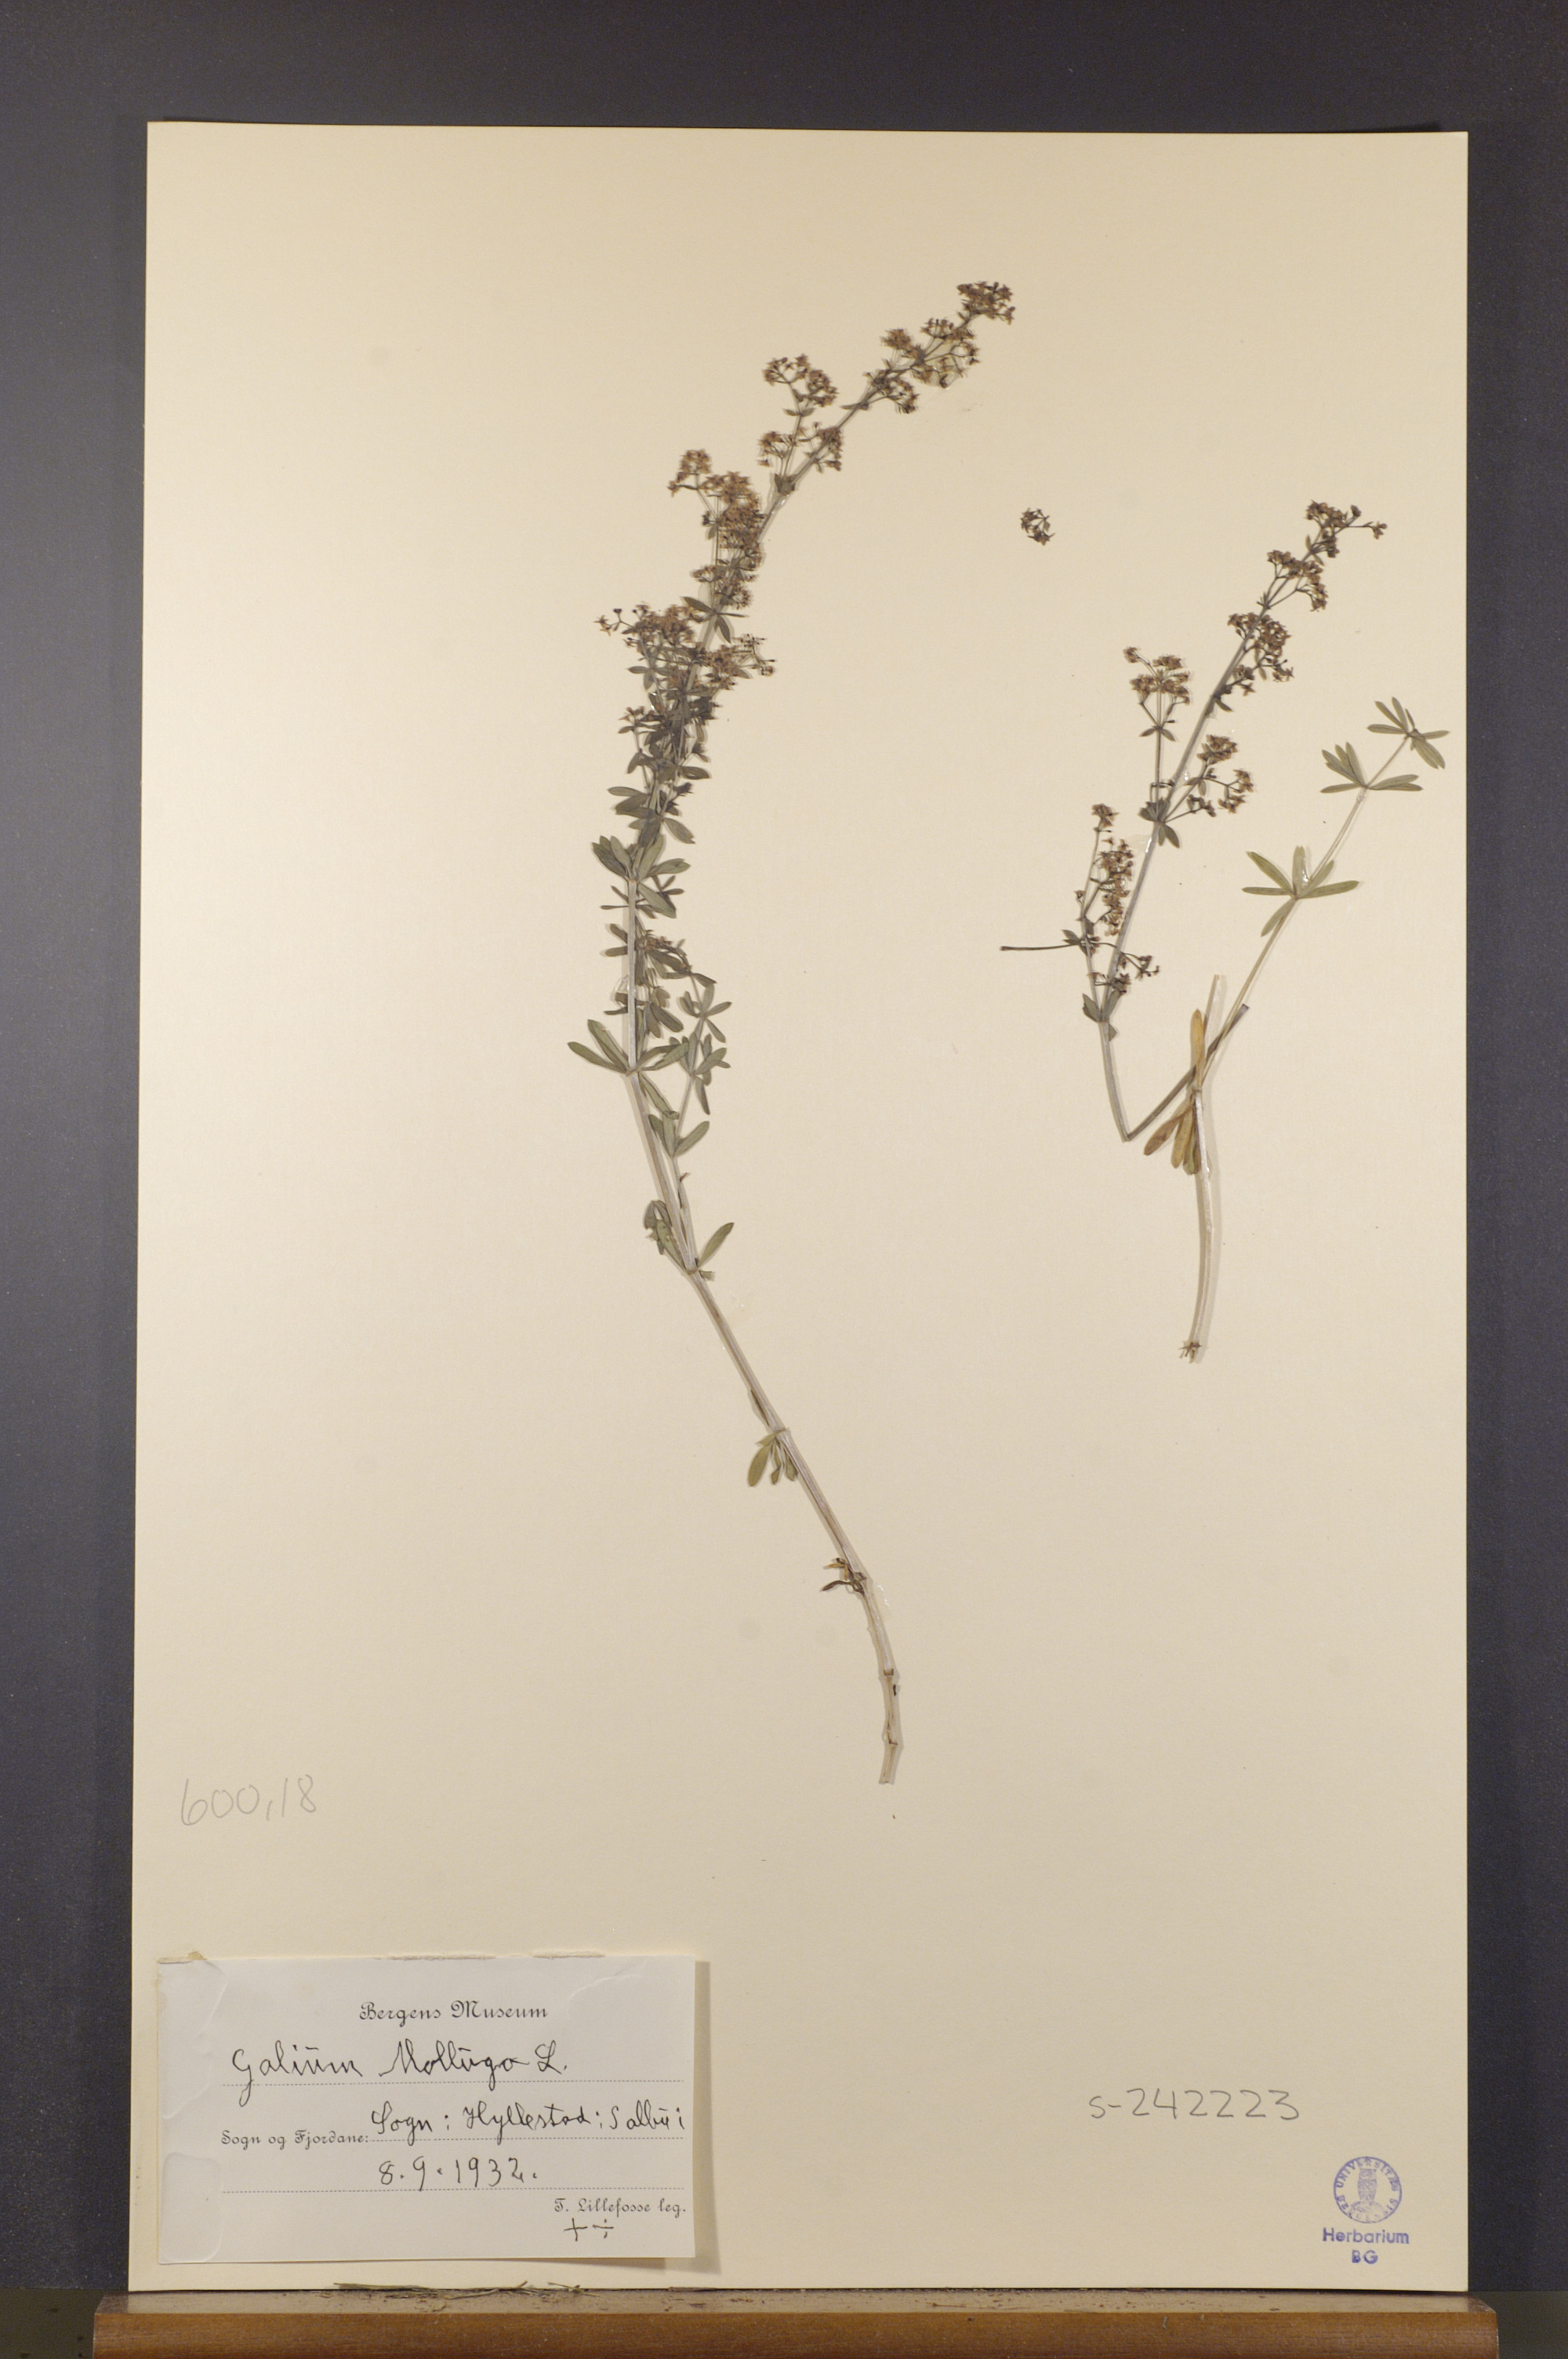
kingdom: Plantae
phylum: Tracheophyta
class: Magnoliopsida
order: Gentianales
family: Rubiaceae
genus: Galium
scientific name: Galium mollugo
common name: Hedge bedstraw
